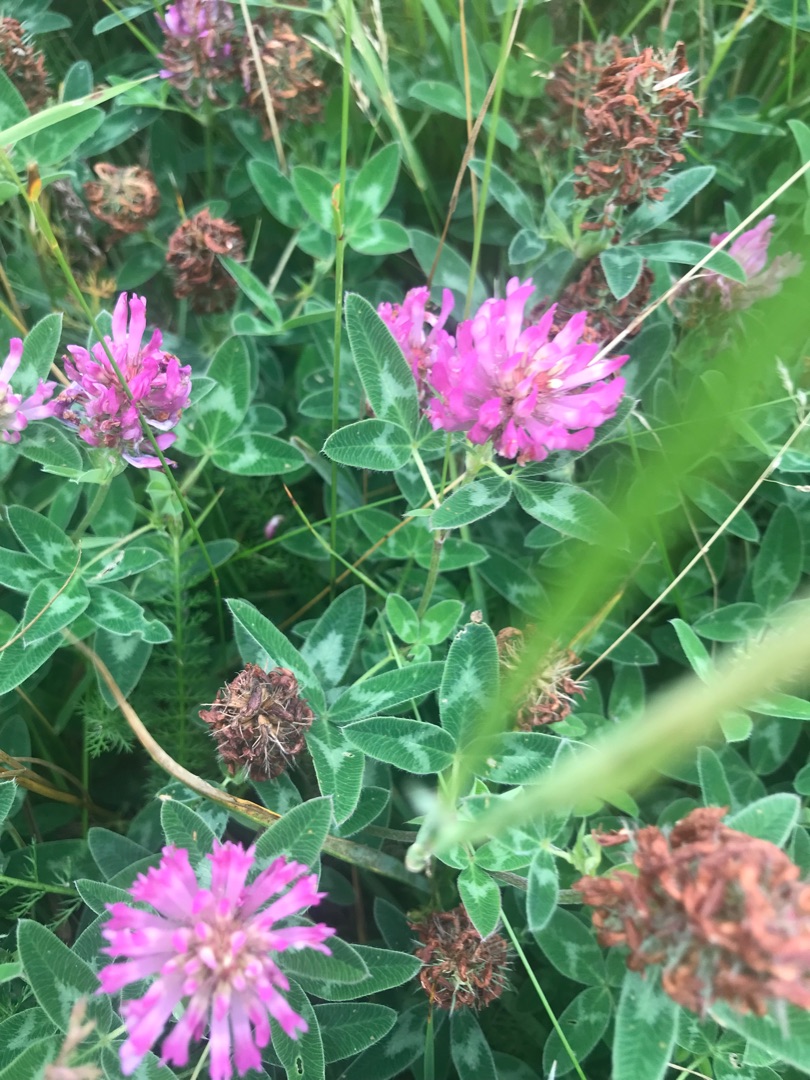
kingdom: Plantae
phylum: Tracheophyta
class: Magnoliopsida
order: Fabales
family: Fabaceae
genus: Trifolium
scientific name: Trifolium medium
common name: Bugtet kløver
